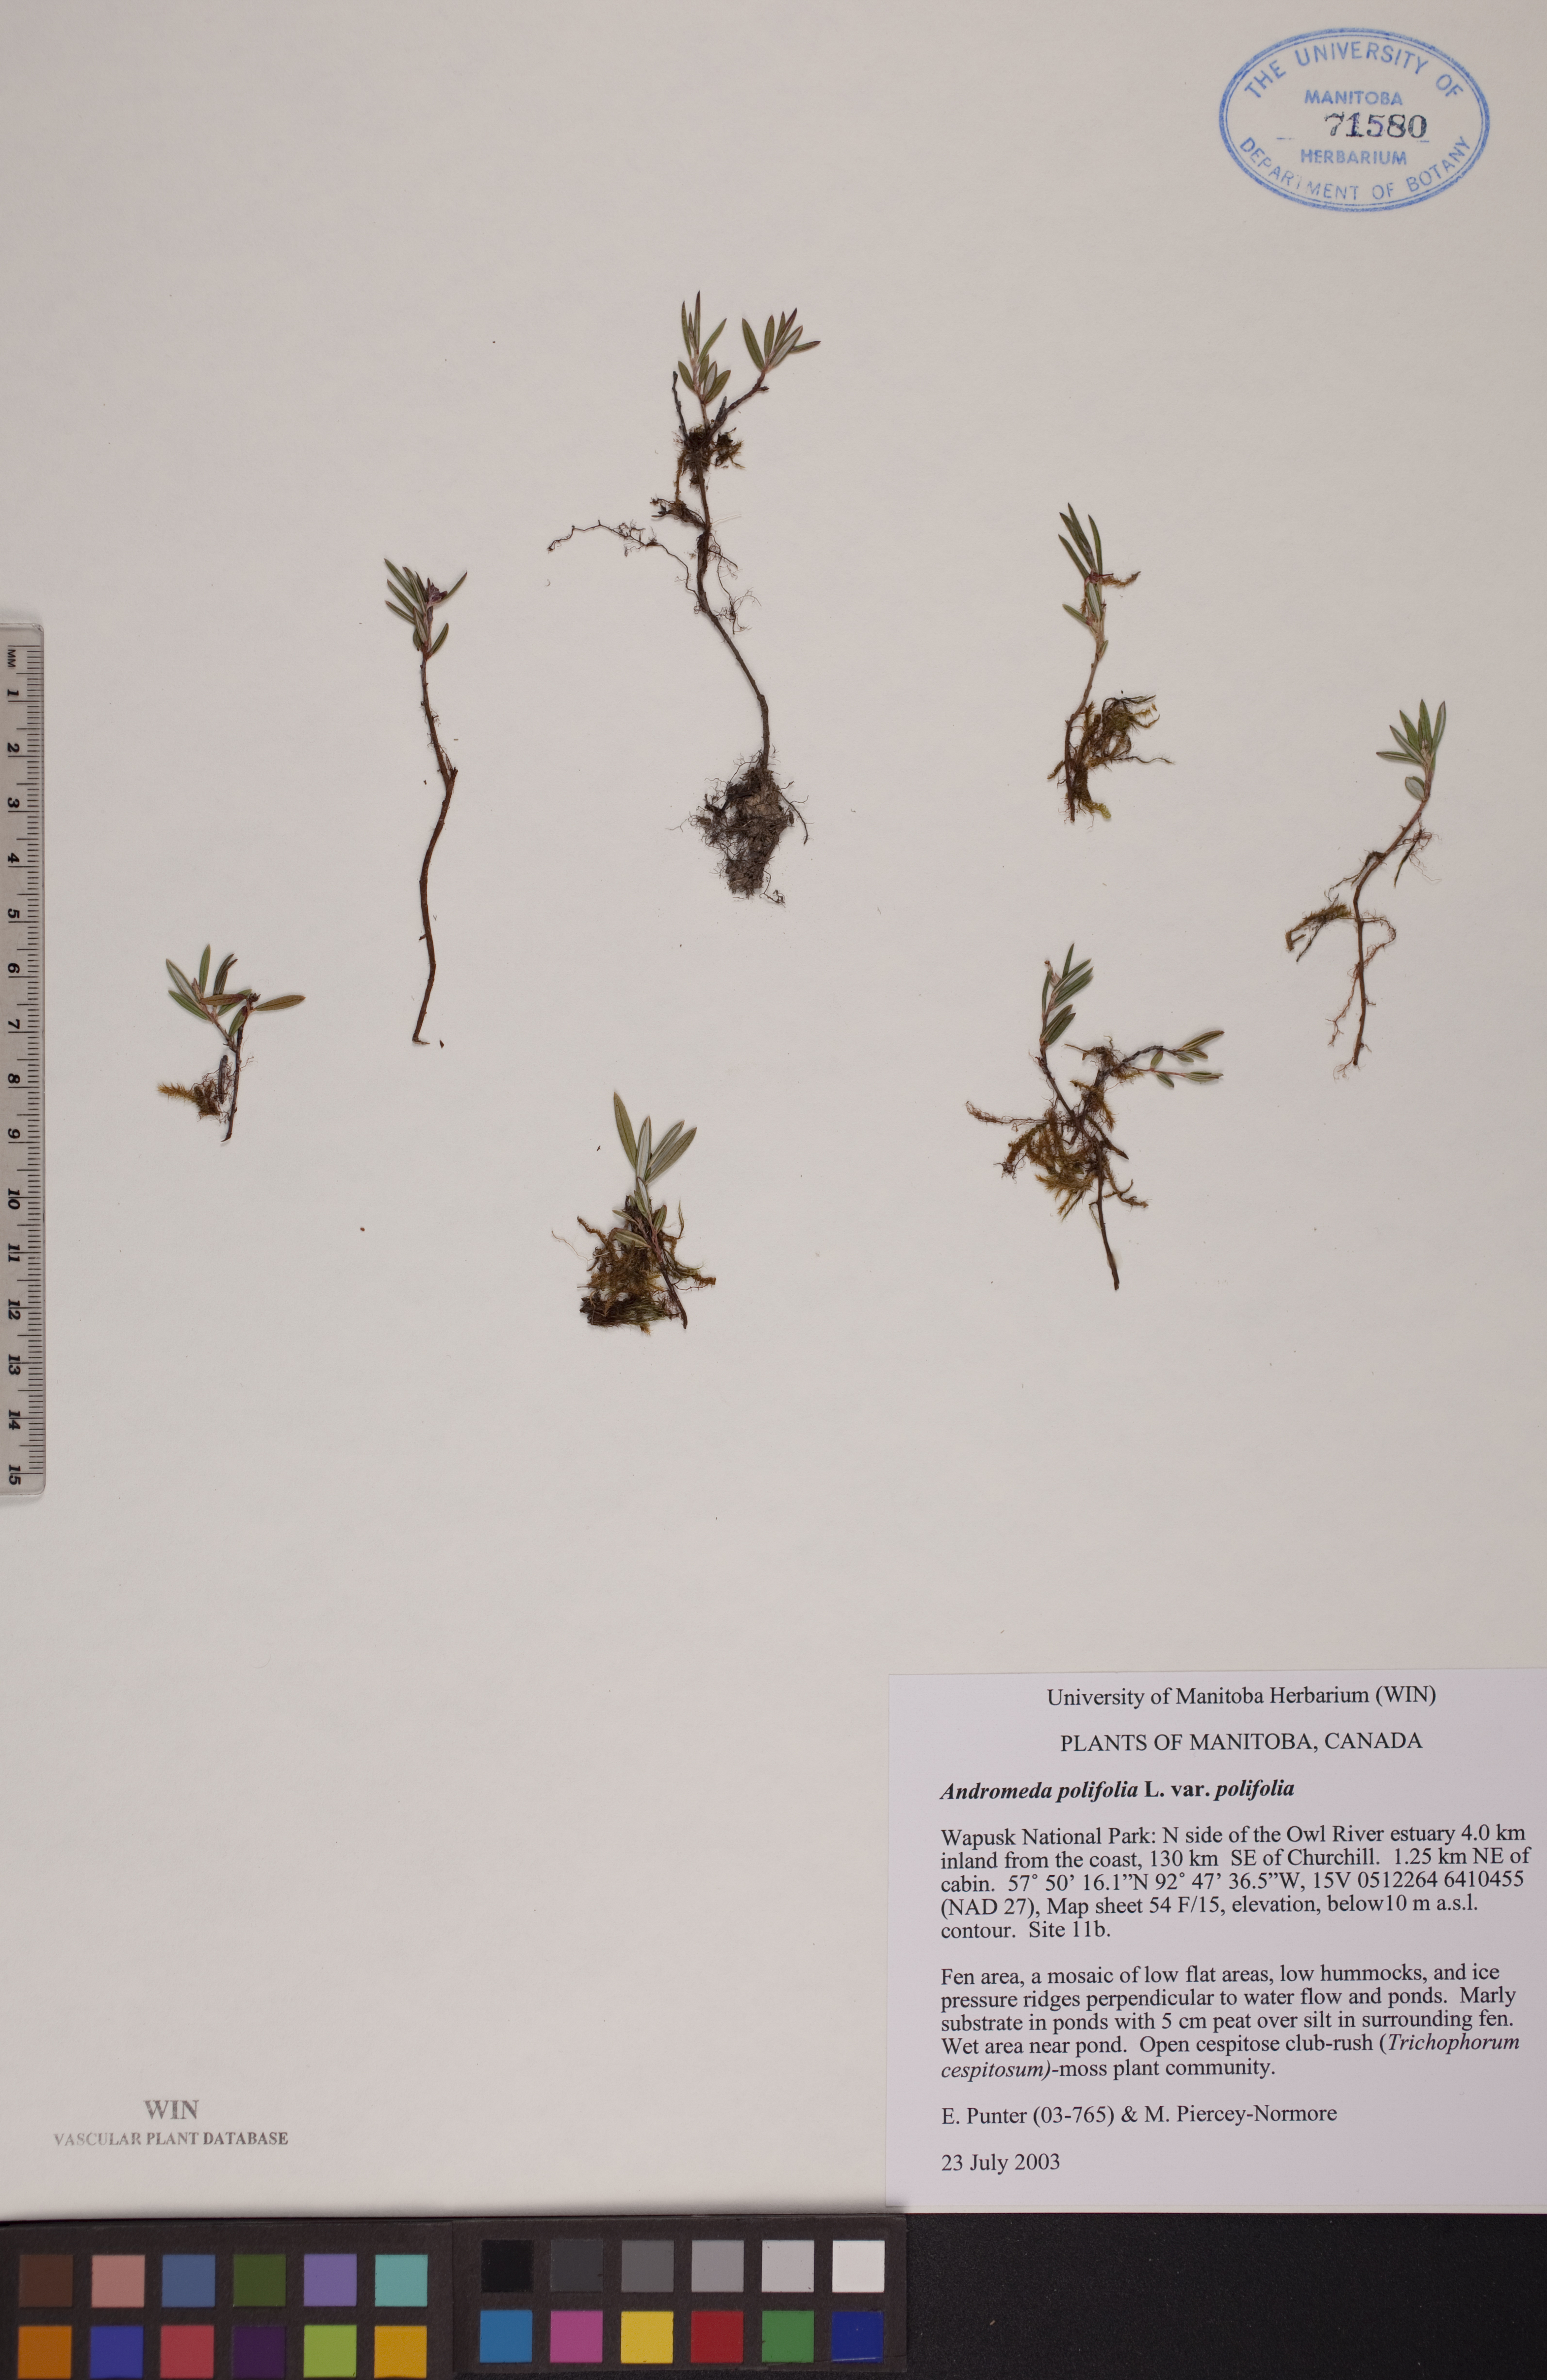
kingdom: Plantae
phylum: Tracheophyta
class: Magnoliopsida
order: Ericales
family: Ericaceae
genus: Andromeda
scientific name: Andromeda polifolia
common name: Bog-rosemary
